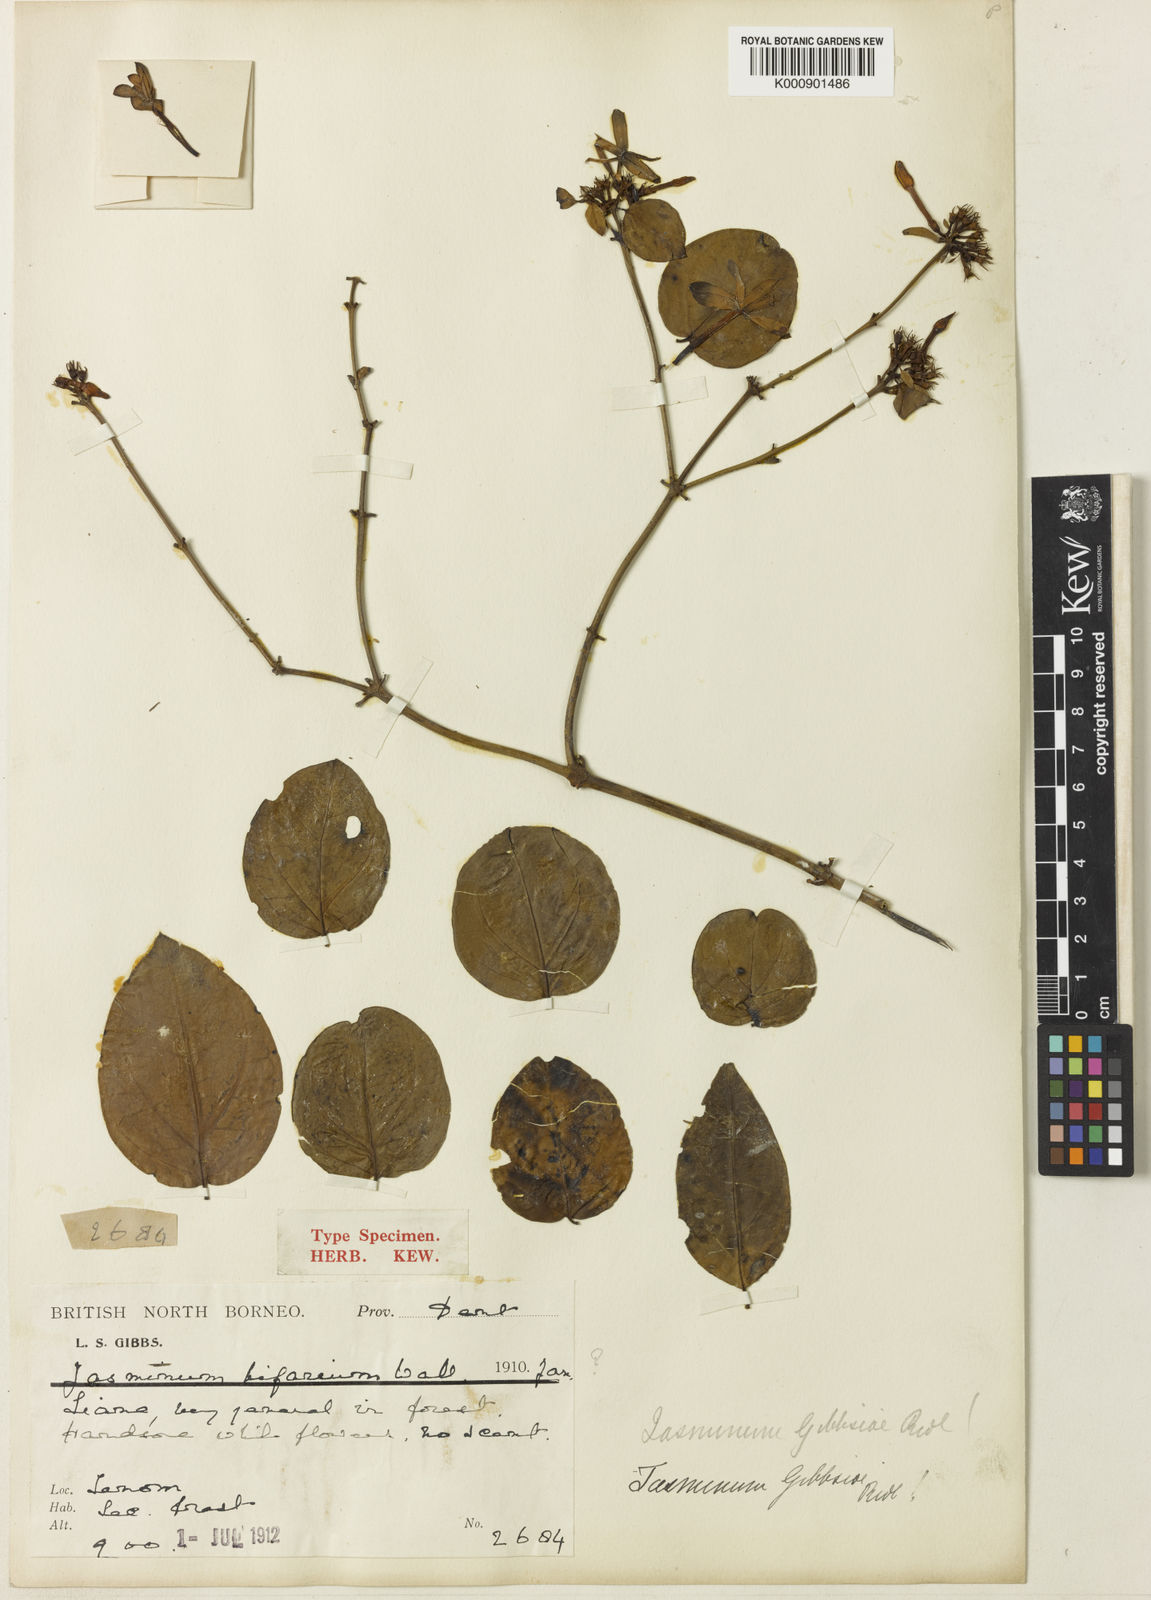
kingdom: Plantae
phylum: Tracheophyta
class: Magnoliopsida
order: Lamiales
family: Oleaceae
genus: Jasminum
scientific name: Jasminum elongatum
